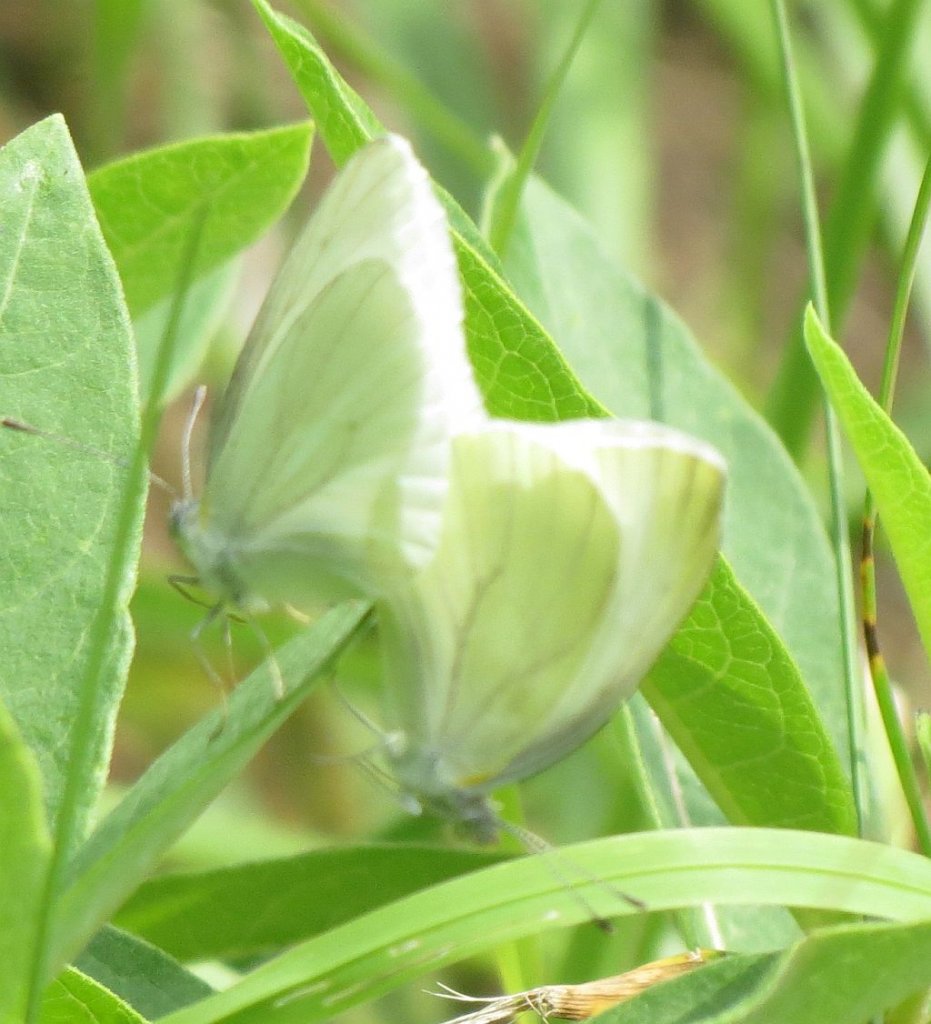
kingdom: Animalia
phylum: Arthropoda
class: Insecta
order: Lepidoptera
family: Pieridae
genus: Pieris
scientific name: Pieris oleracea
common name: Mustard White
